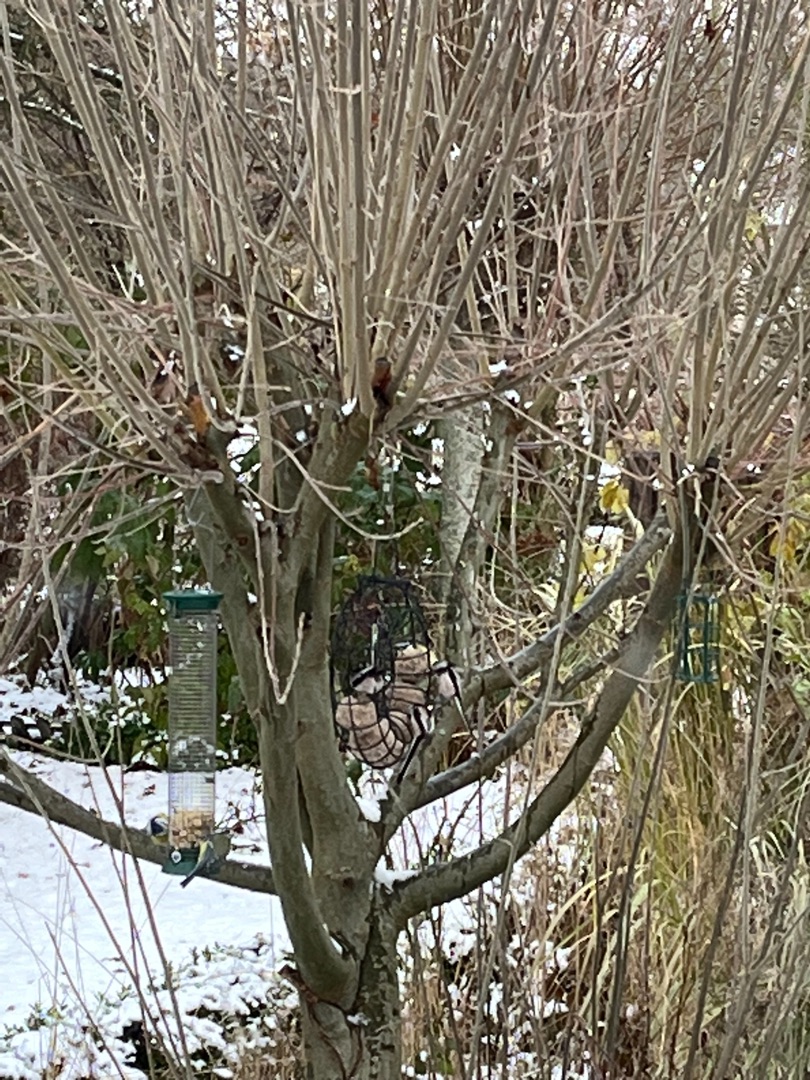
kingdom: Animalia
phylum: Chordata
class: Aves
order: Passeriformes
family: Aegithalidae
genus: Aegithalos
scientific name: Aegithalos caudatus
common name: Halemejse
